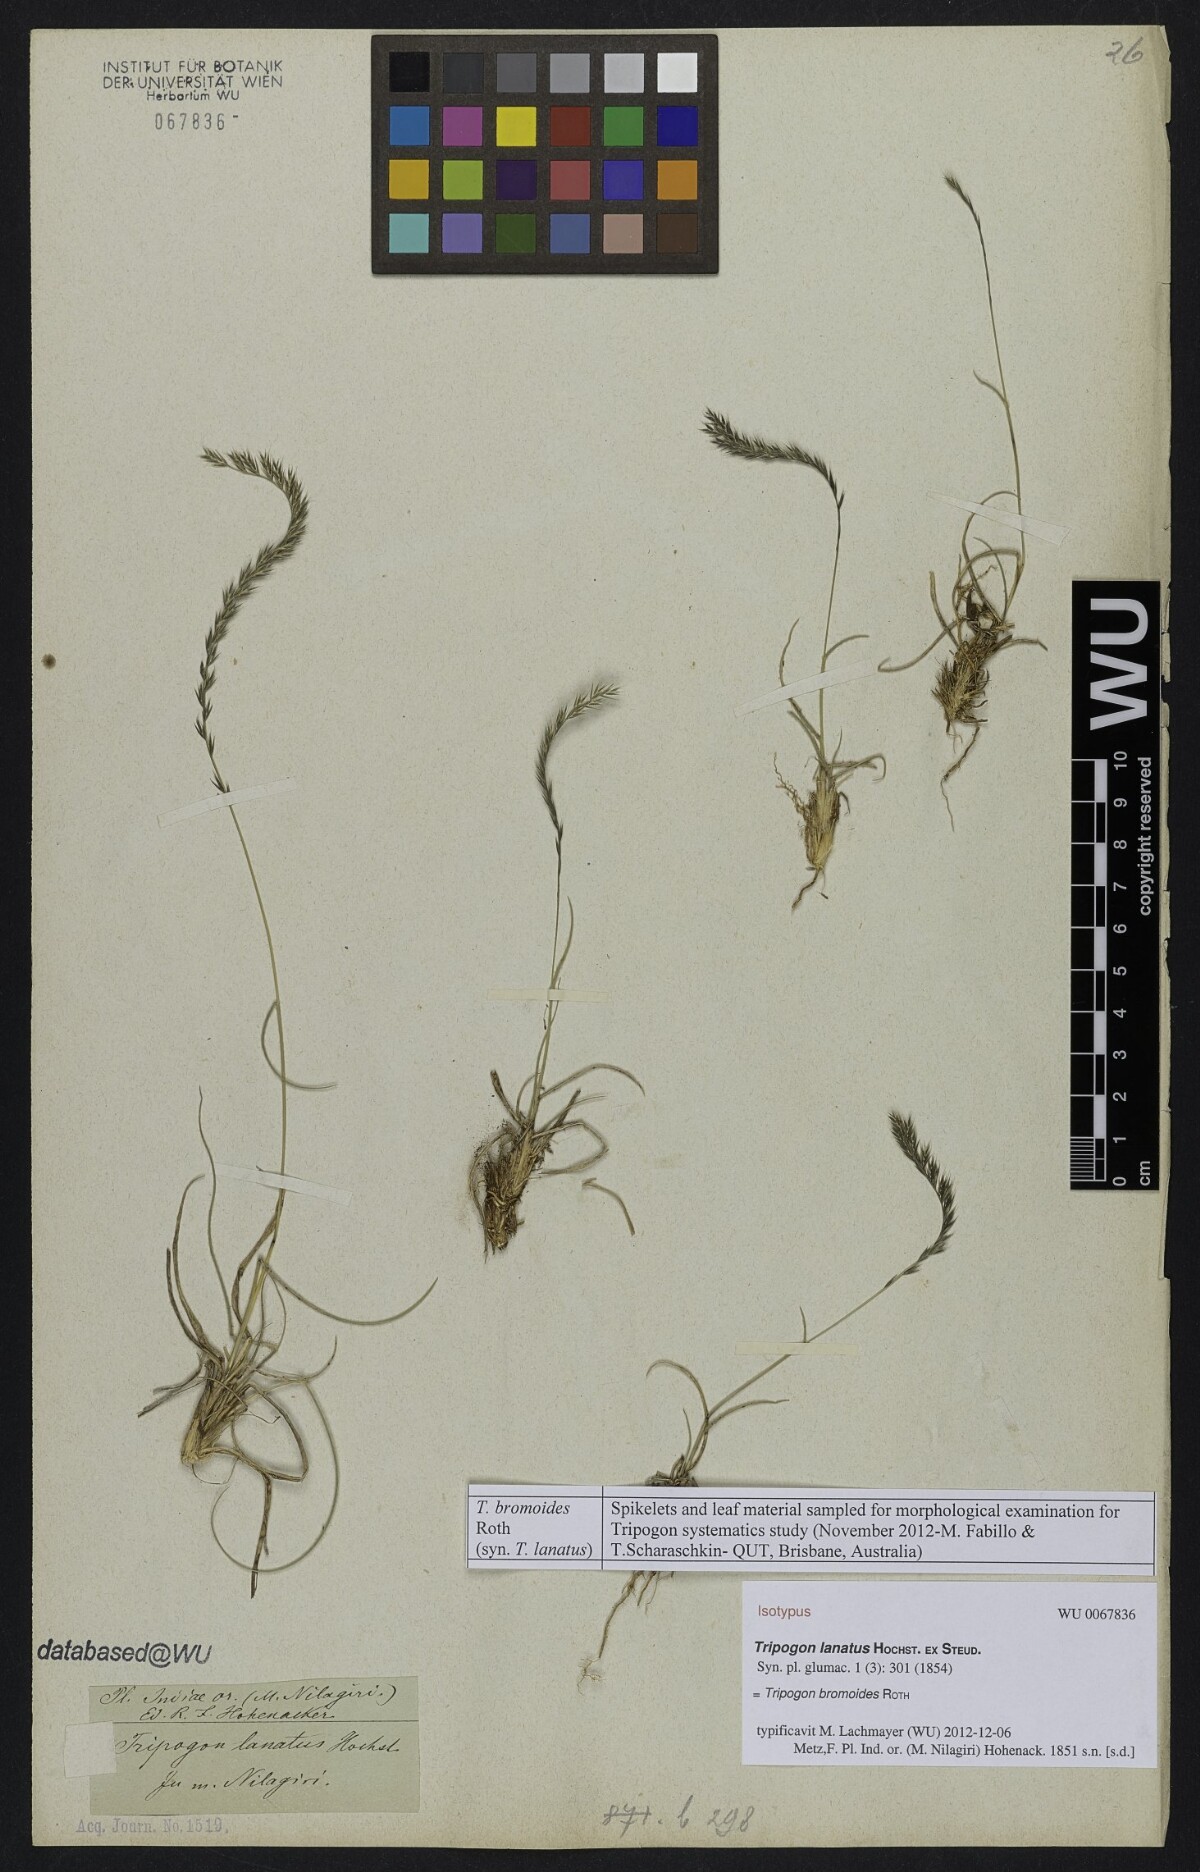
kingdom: Plantae
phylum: Tracheophyta
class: Liliopsida
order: Poales
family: Poaceae
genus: Tripogon
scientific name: Tripogon bromoides
